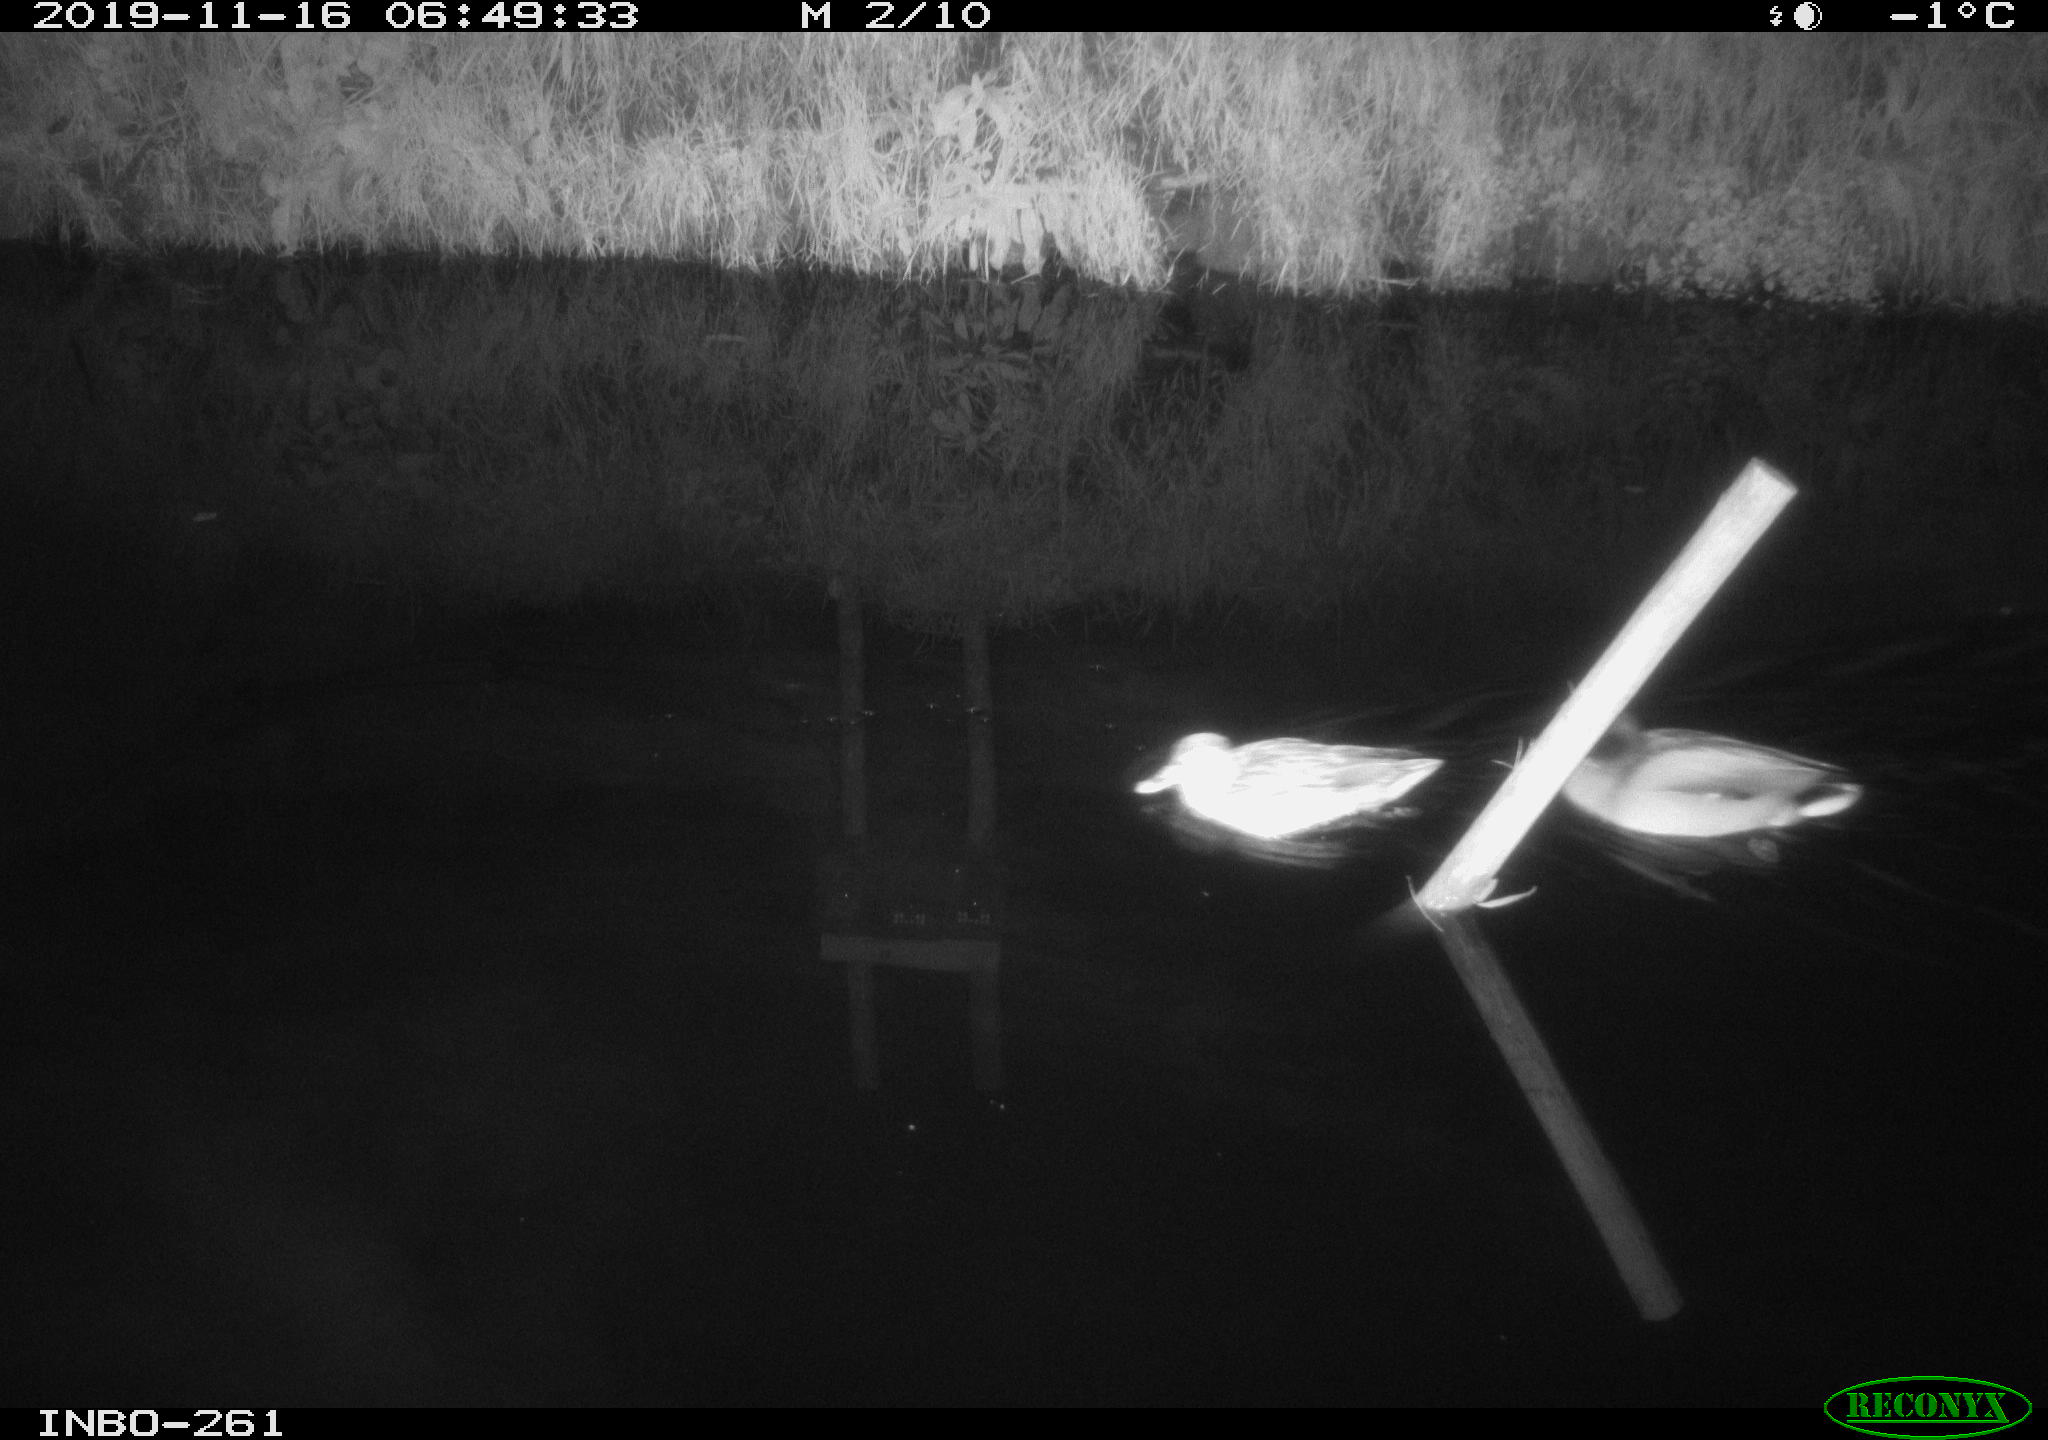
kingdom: Animalia
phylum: Chordata
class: Aves
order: Anseriformes
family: Anatidae
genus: Anas
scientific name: Anas platyrhynchos
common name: Mallard
